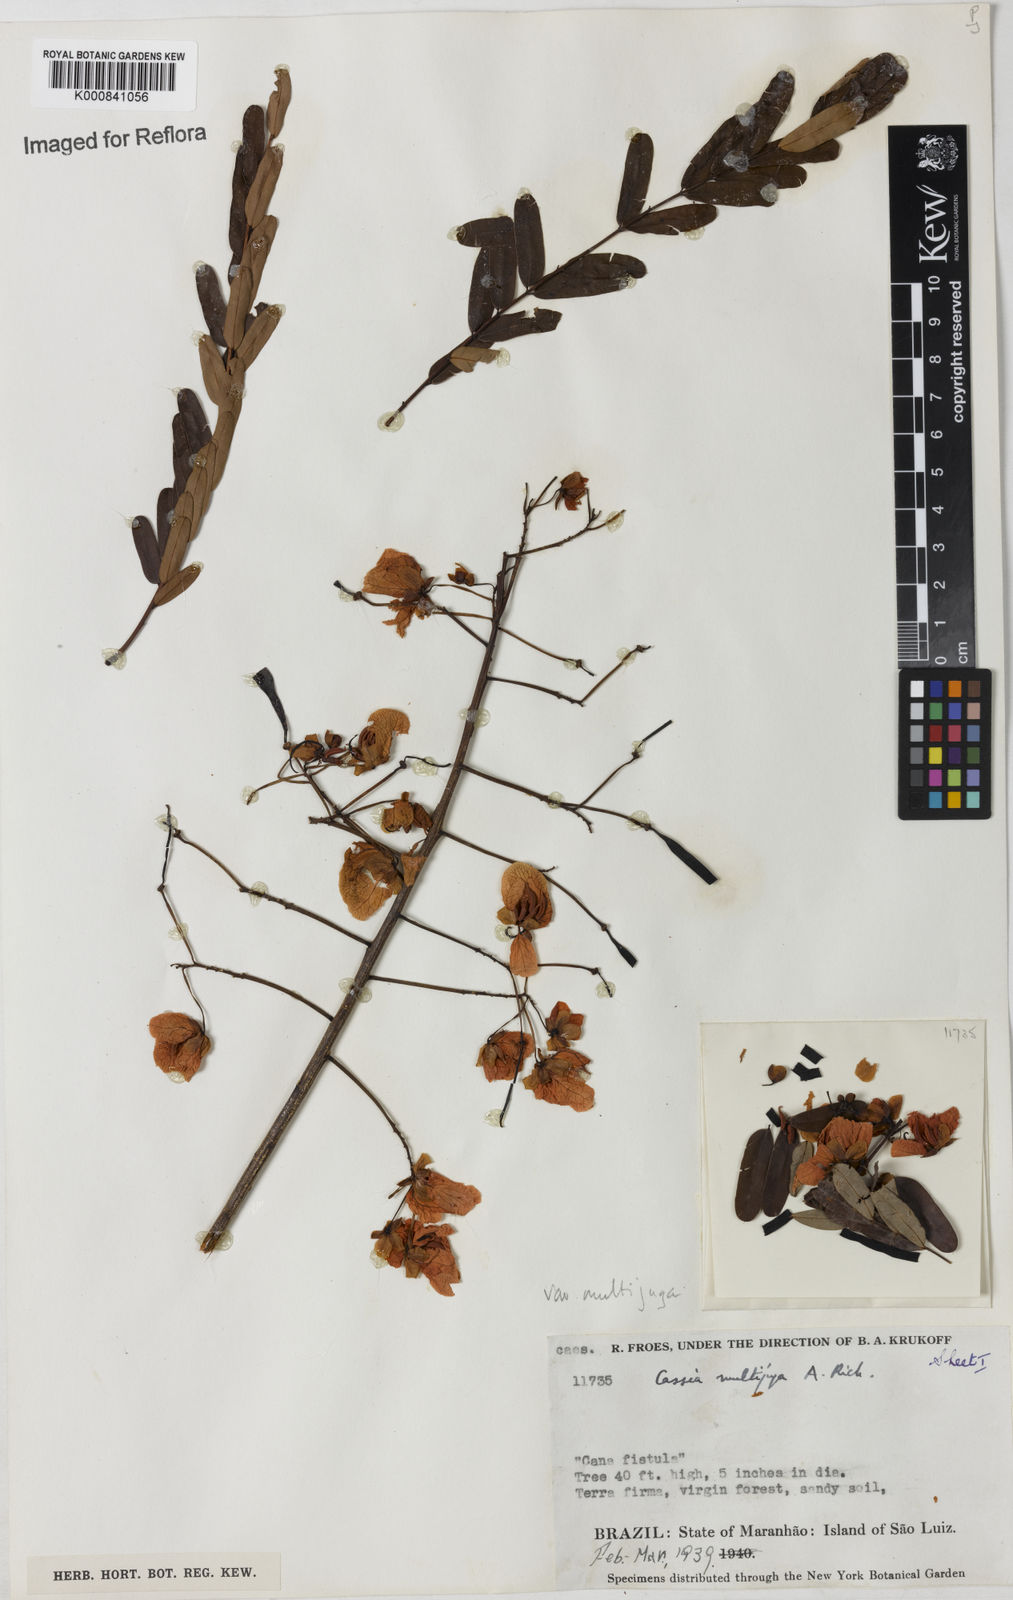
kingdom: Plantae
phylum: Tracheophyta
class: Magnoliopsida
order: Fabales
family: Fabaceae
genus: Senna
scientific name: Senna multijuga
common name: False sicklepod
